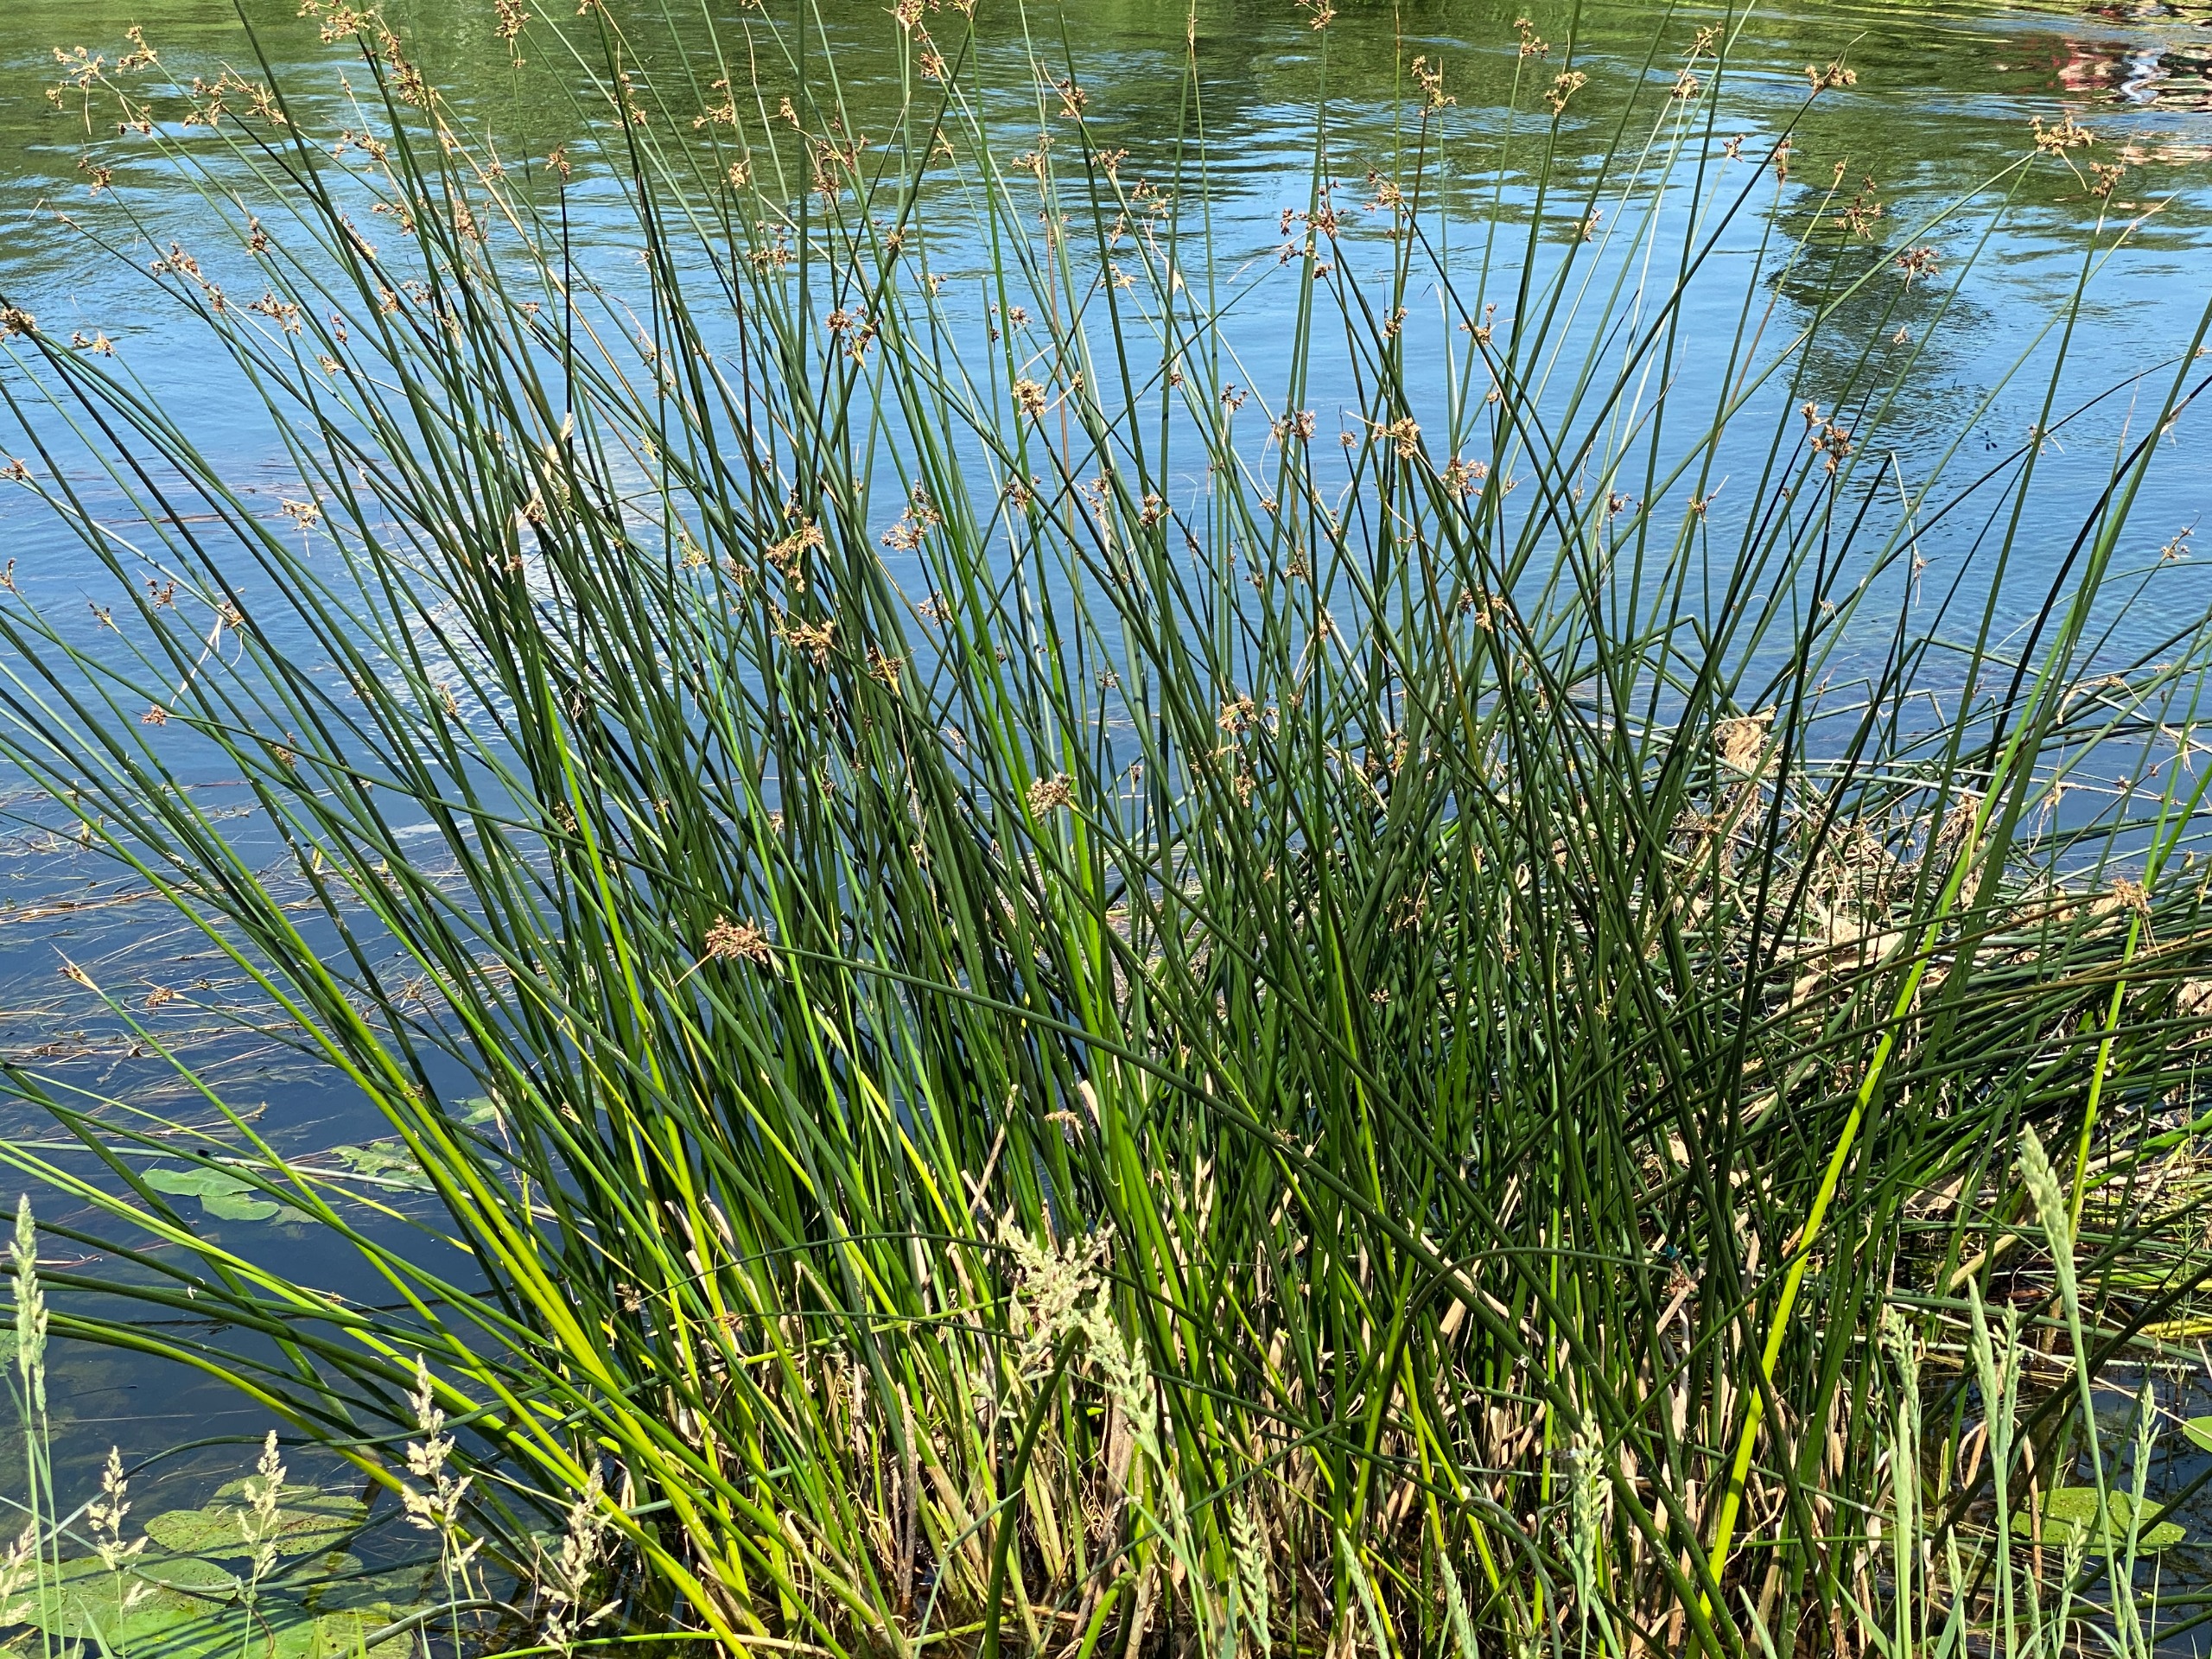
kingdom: Plantae
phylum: Tracheophyta
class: Liliopsida
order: Poales
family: Juncaceae
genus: Juncus
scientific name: Juncus effusus
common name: Lyse-siv
